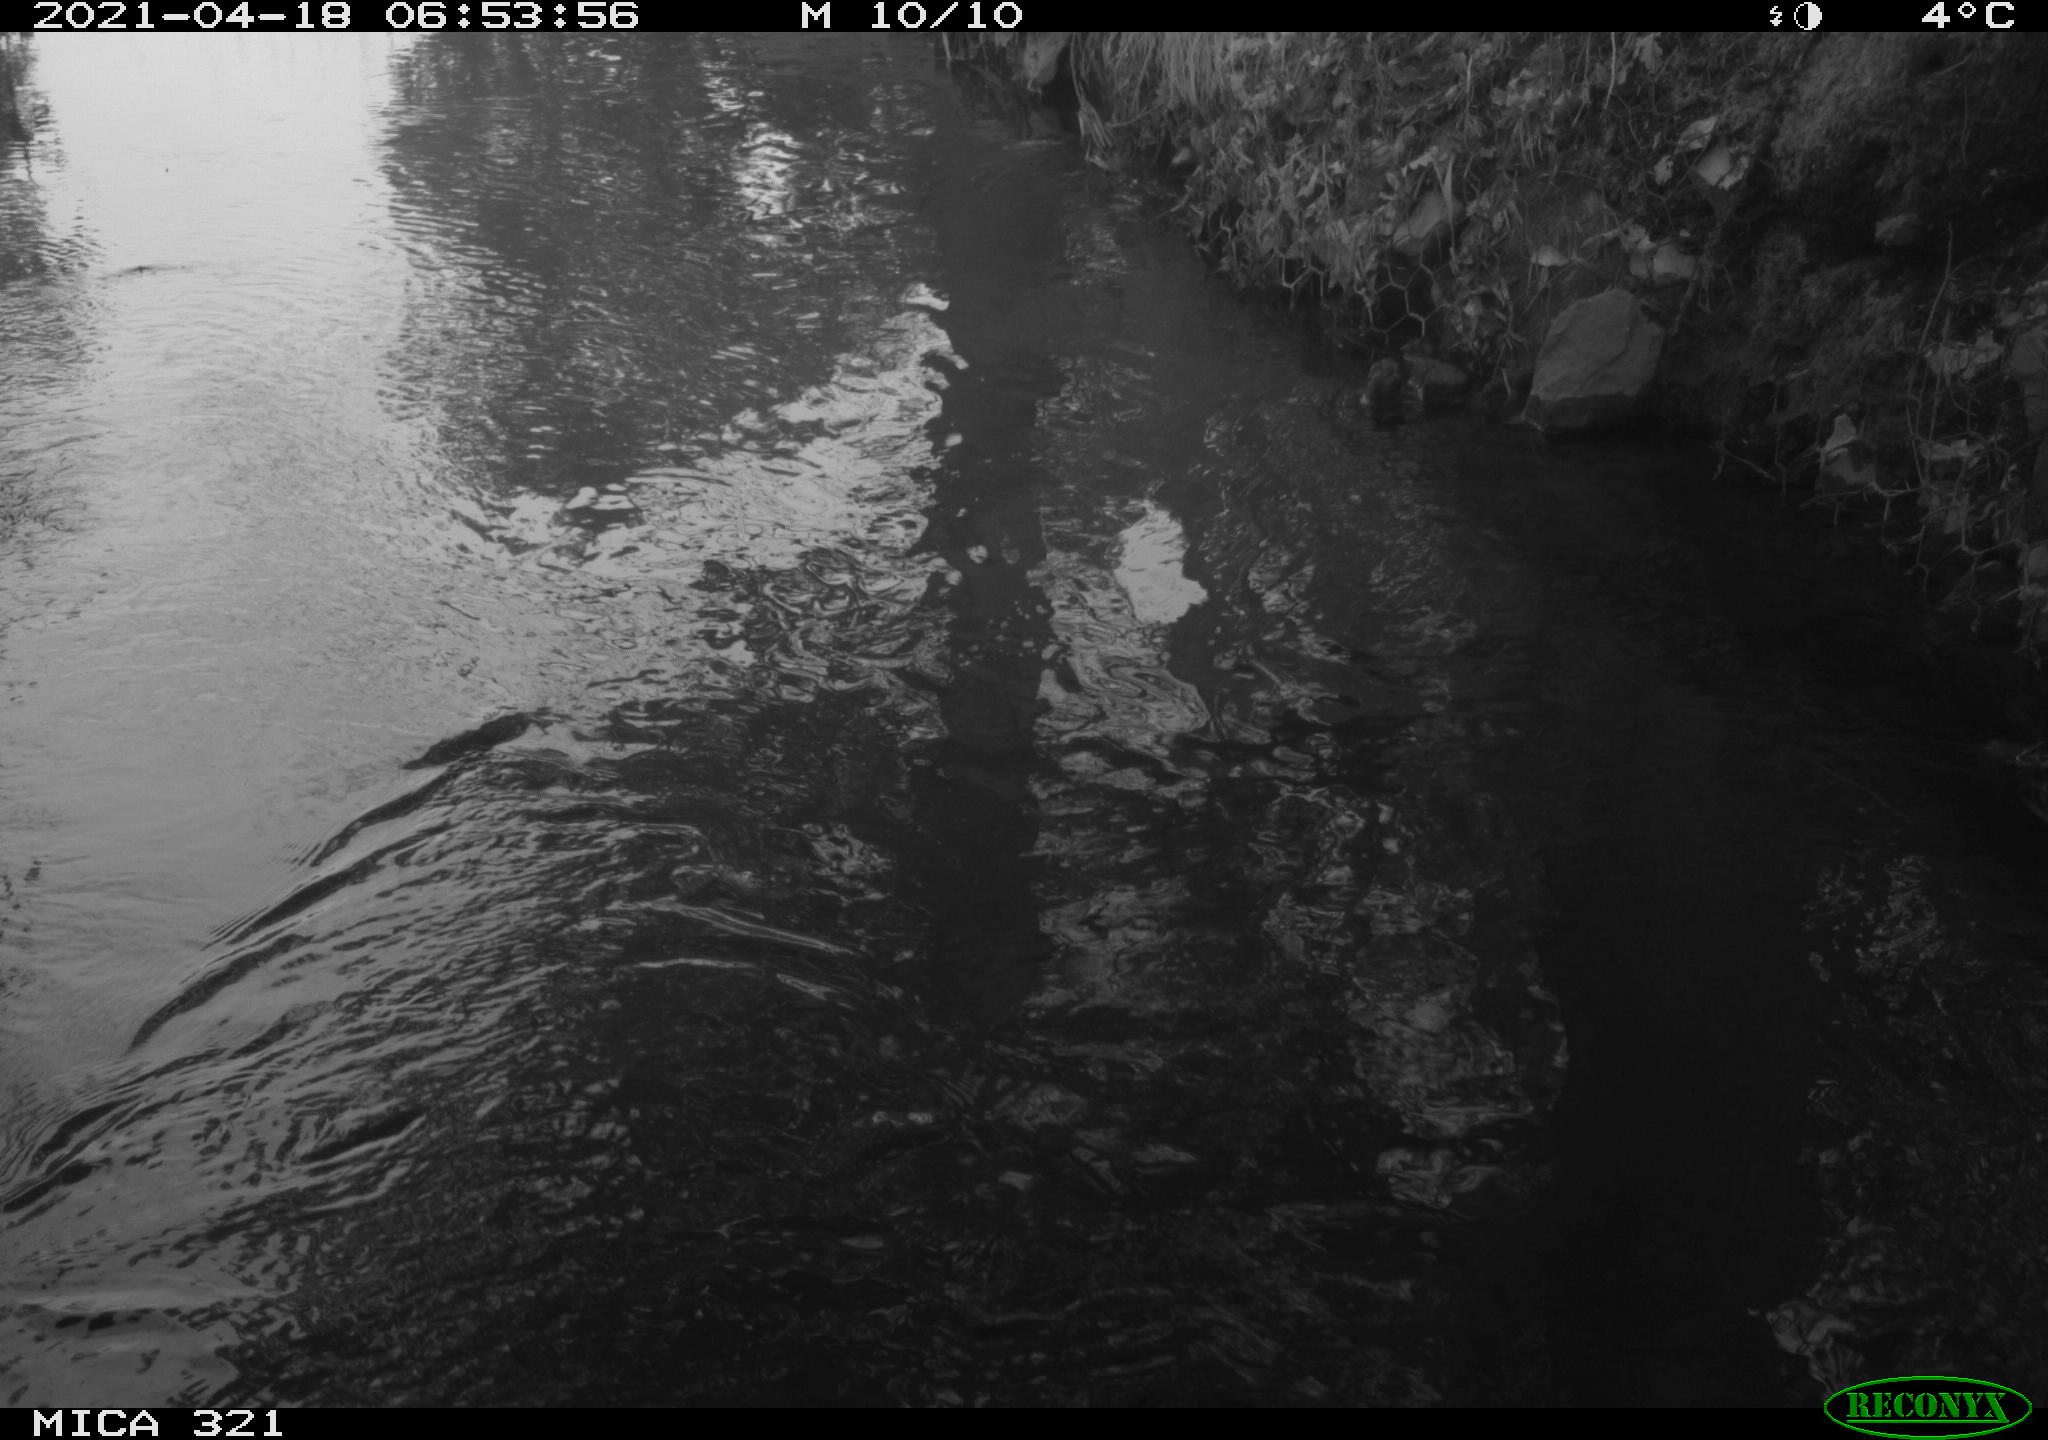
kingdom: Animalia
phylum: Chordata
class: Aves
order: Anseriformes
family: Anatidae
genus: Anas
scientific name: Anas
